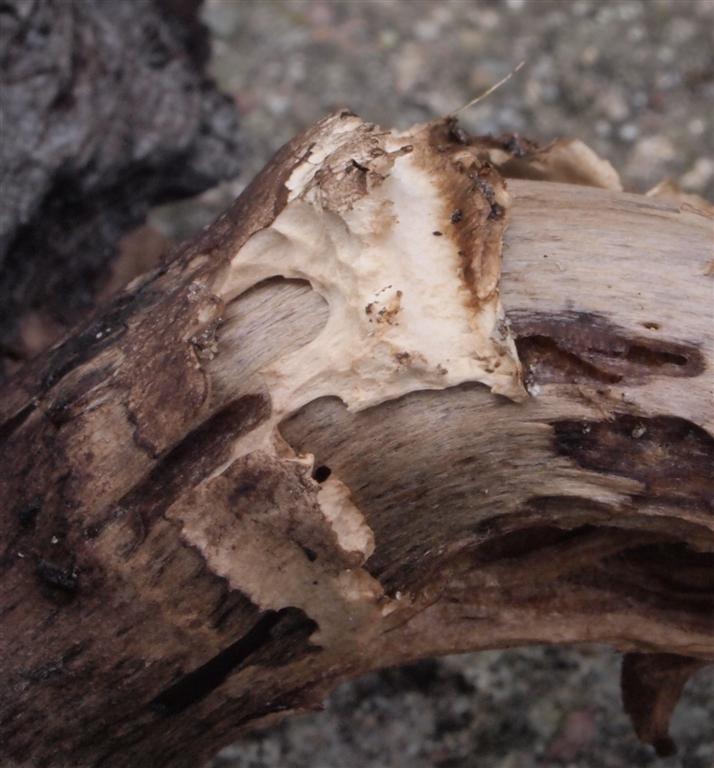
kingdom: Fungi
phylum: Basidiomycota
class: Agaricomycetes
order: Agaricales
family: Agaricaceae
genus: Agaricus
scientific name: Agaricus subperonatus
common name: knippe-champignon
